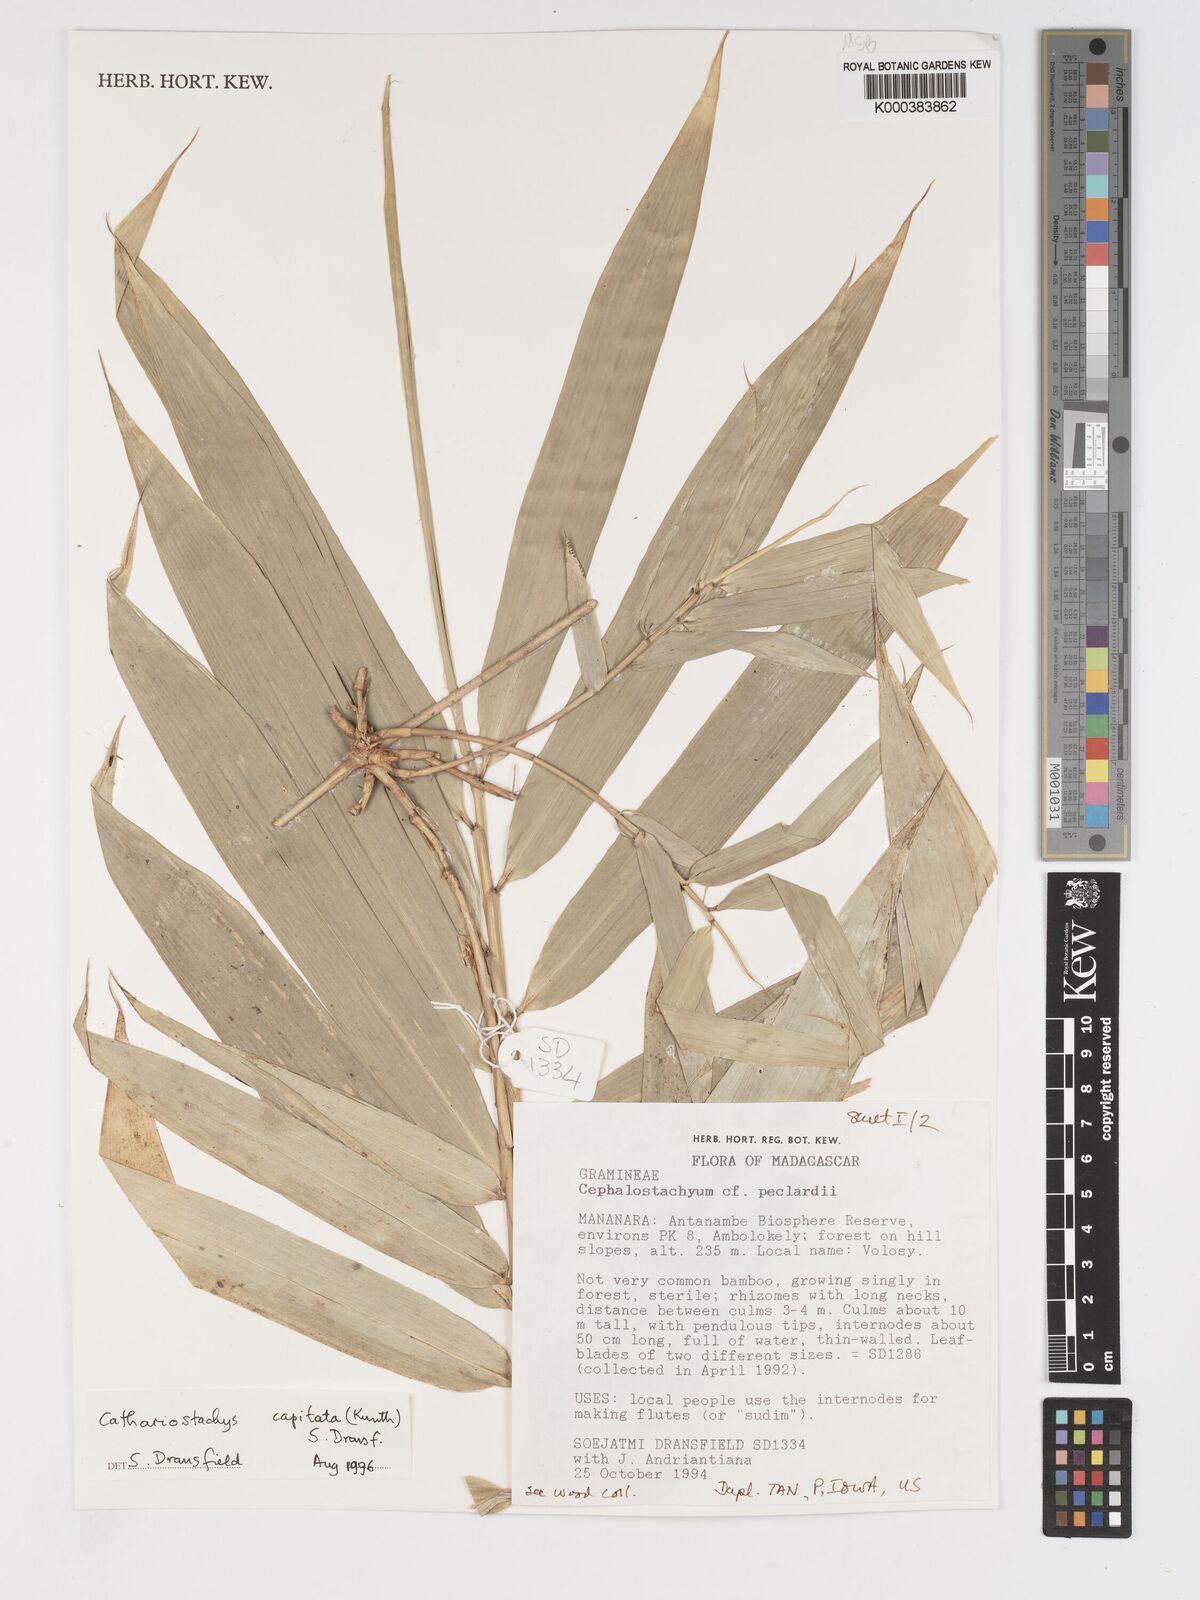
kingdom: Plantae
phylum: Tracheophyta
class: Liliopsida
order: Poales
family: Poaceae
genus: Cathariostachys
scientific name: Cathariostachys capitata
